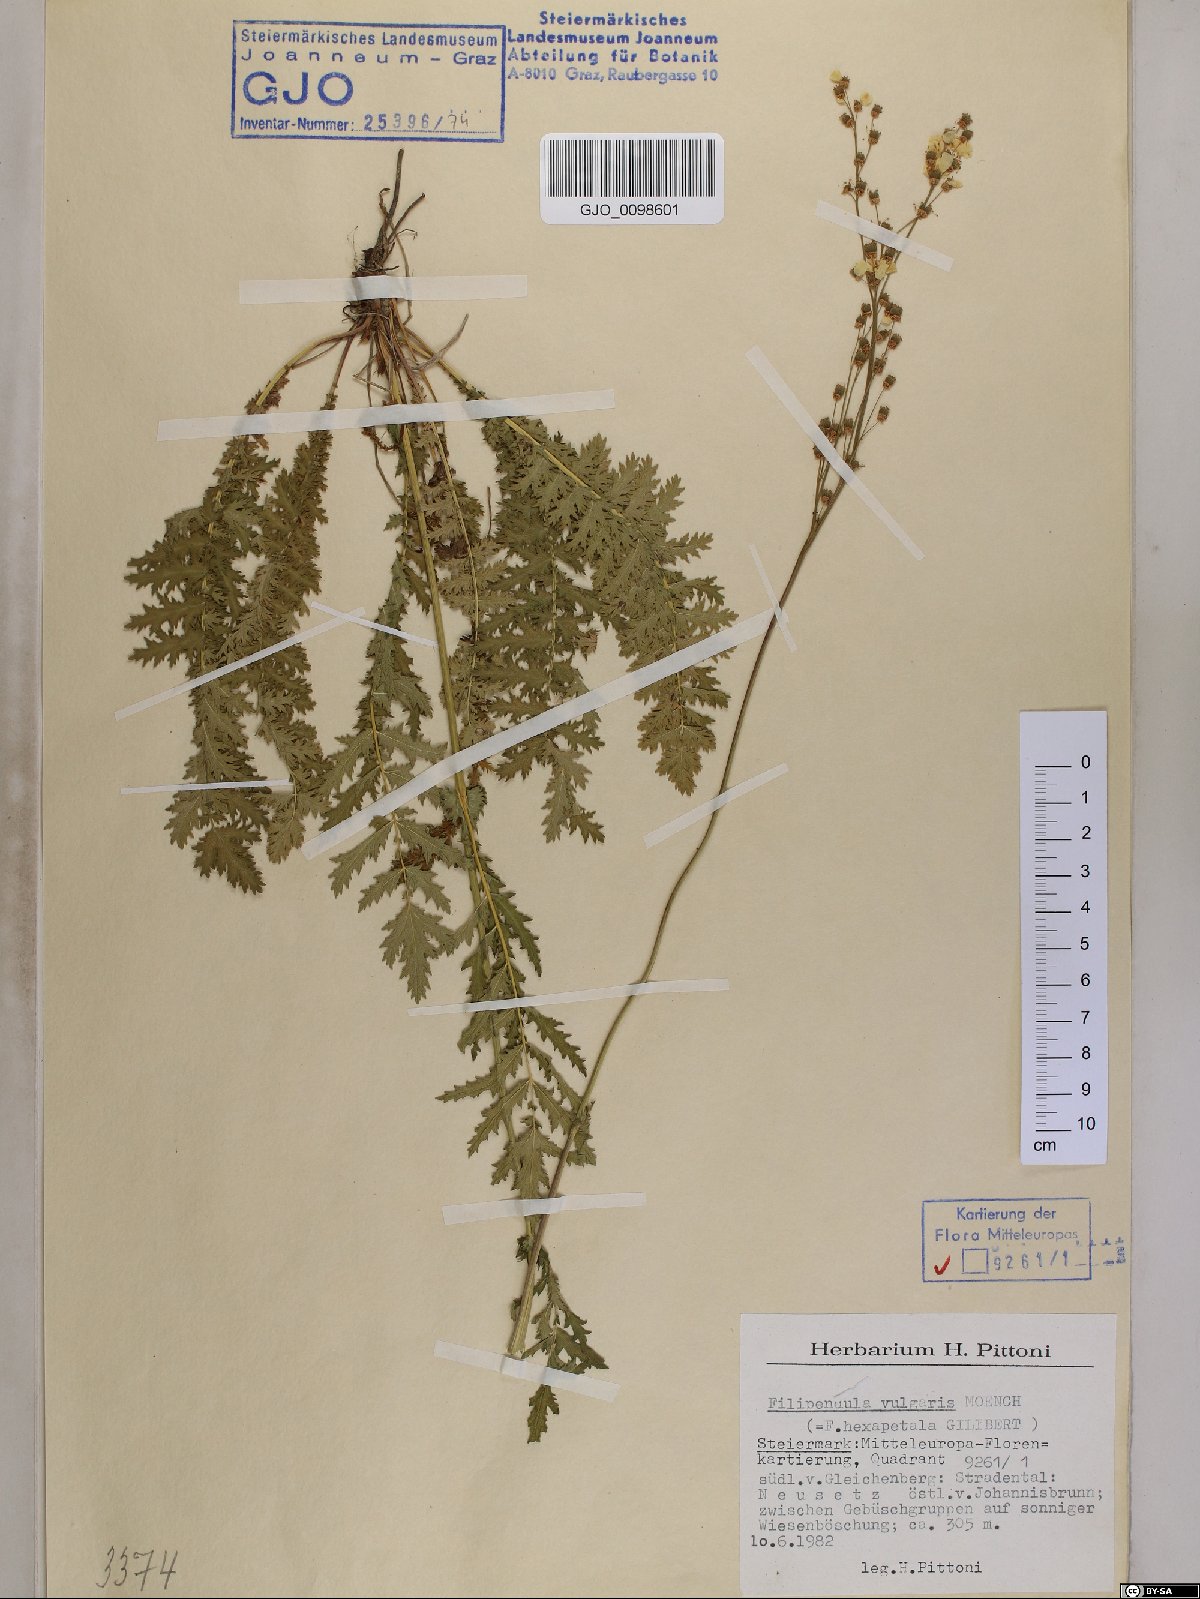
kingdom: Plantae
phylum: Tracheophyta
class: Magnoliopsida
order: Rosales
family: Rosaceae
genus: Filipendula
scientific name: Filipendula vulgaris
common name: Dropwort
